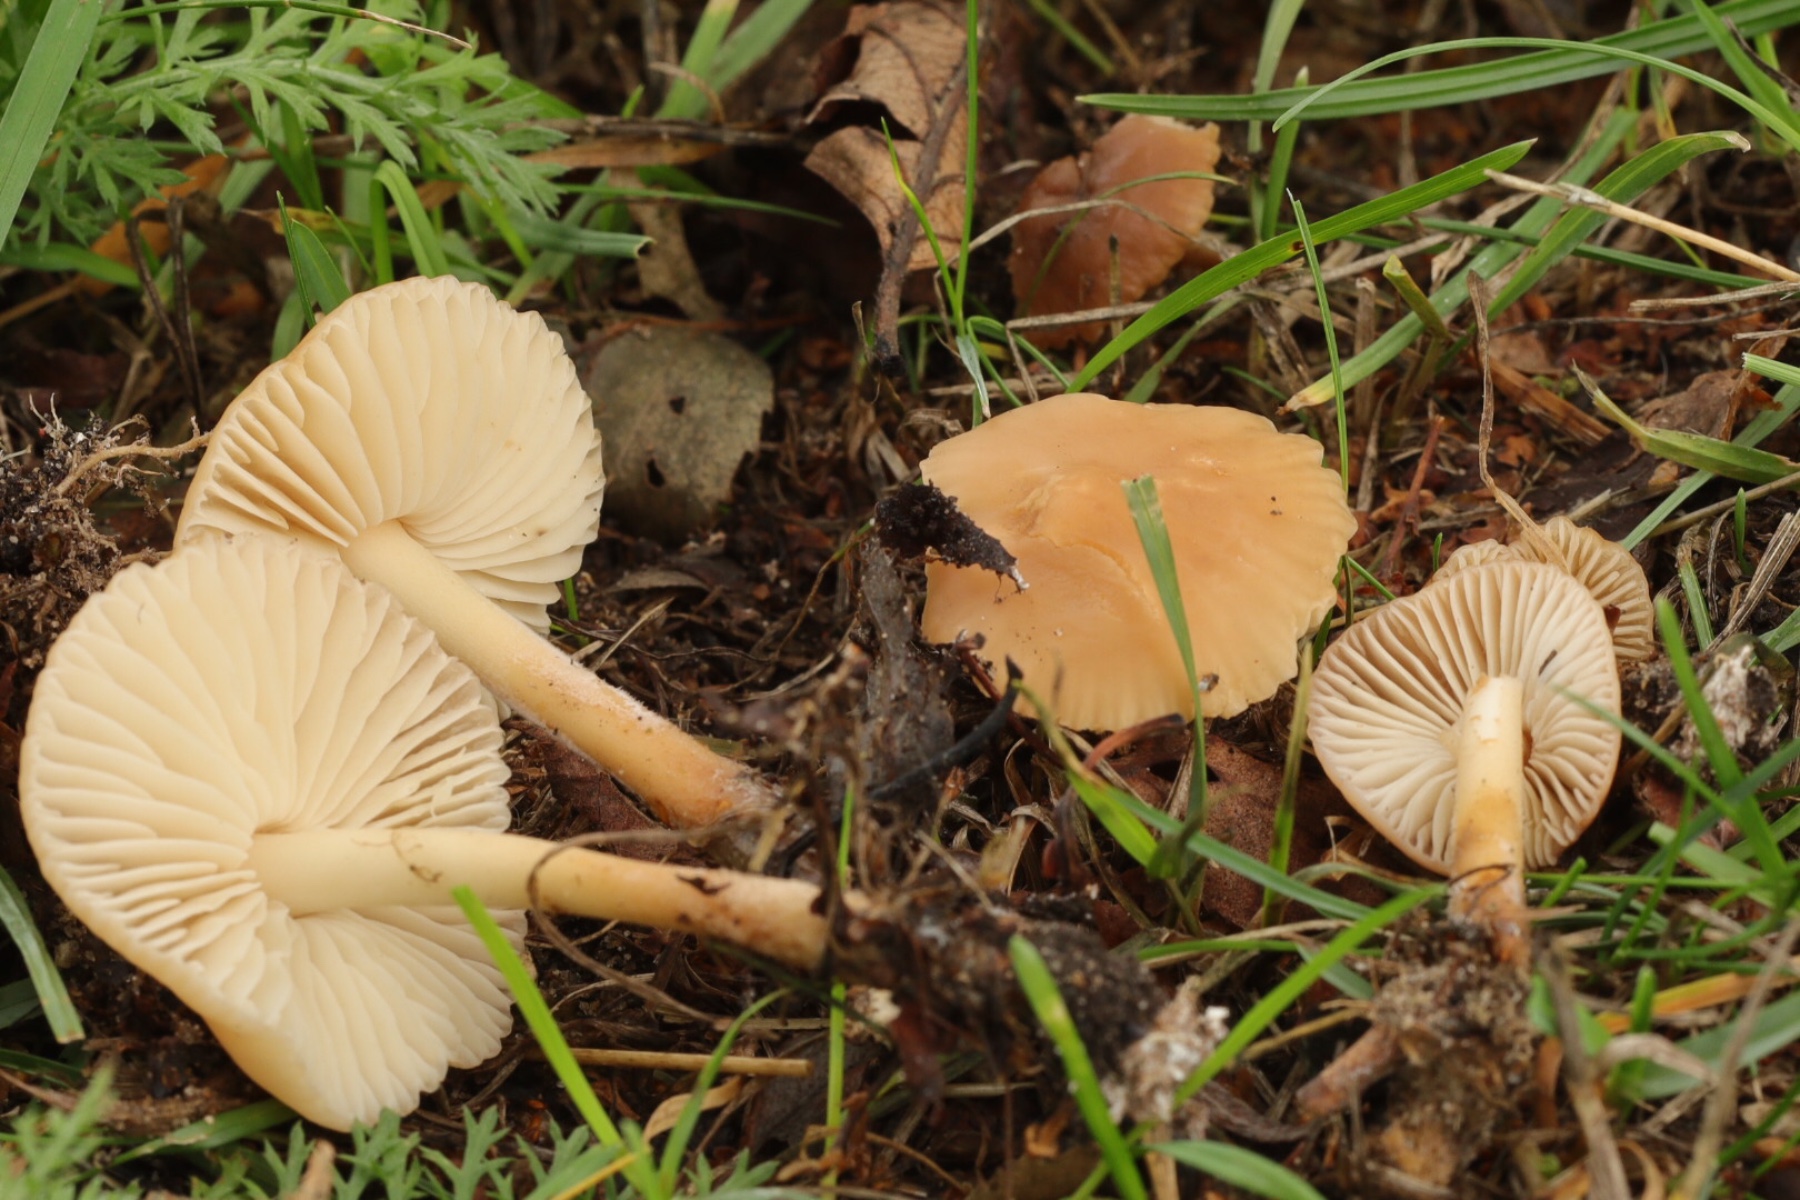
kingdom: Fungi
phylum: Basidiomycota
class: Agaricomycetes
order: Agaricales
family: Marasmiaceae
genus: Marasmius
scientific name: Marasmius oreades
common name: elledans-bruskhat
